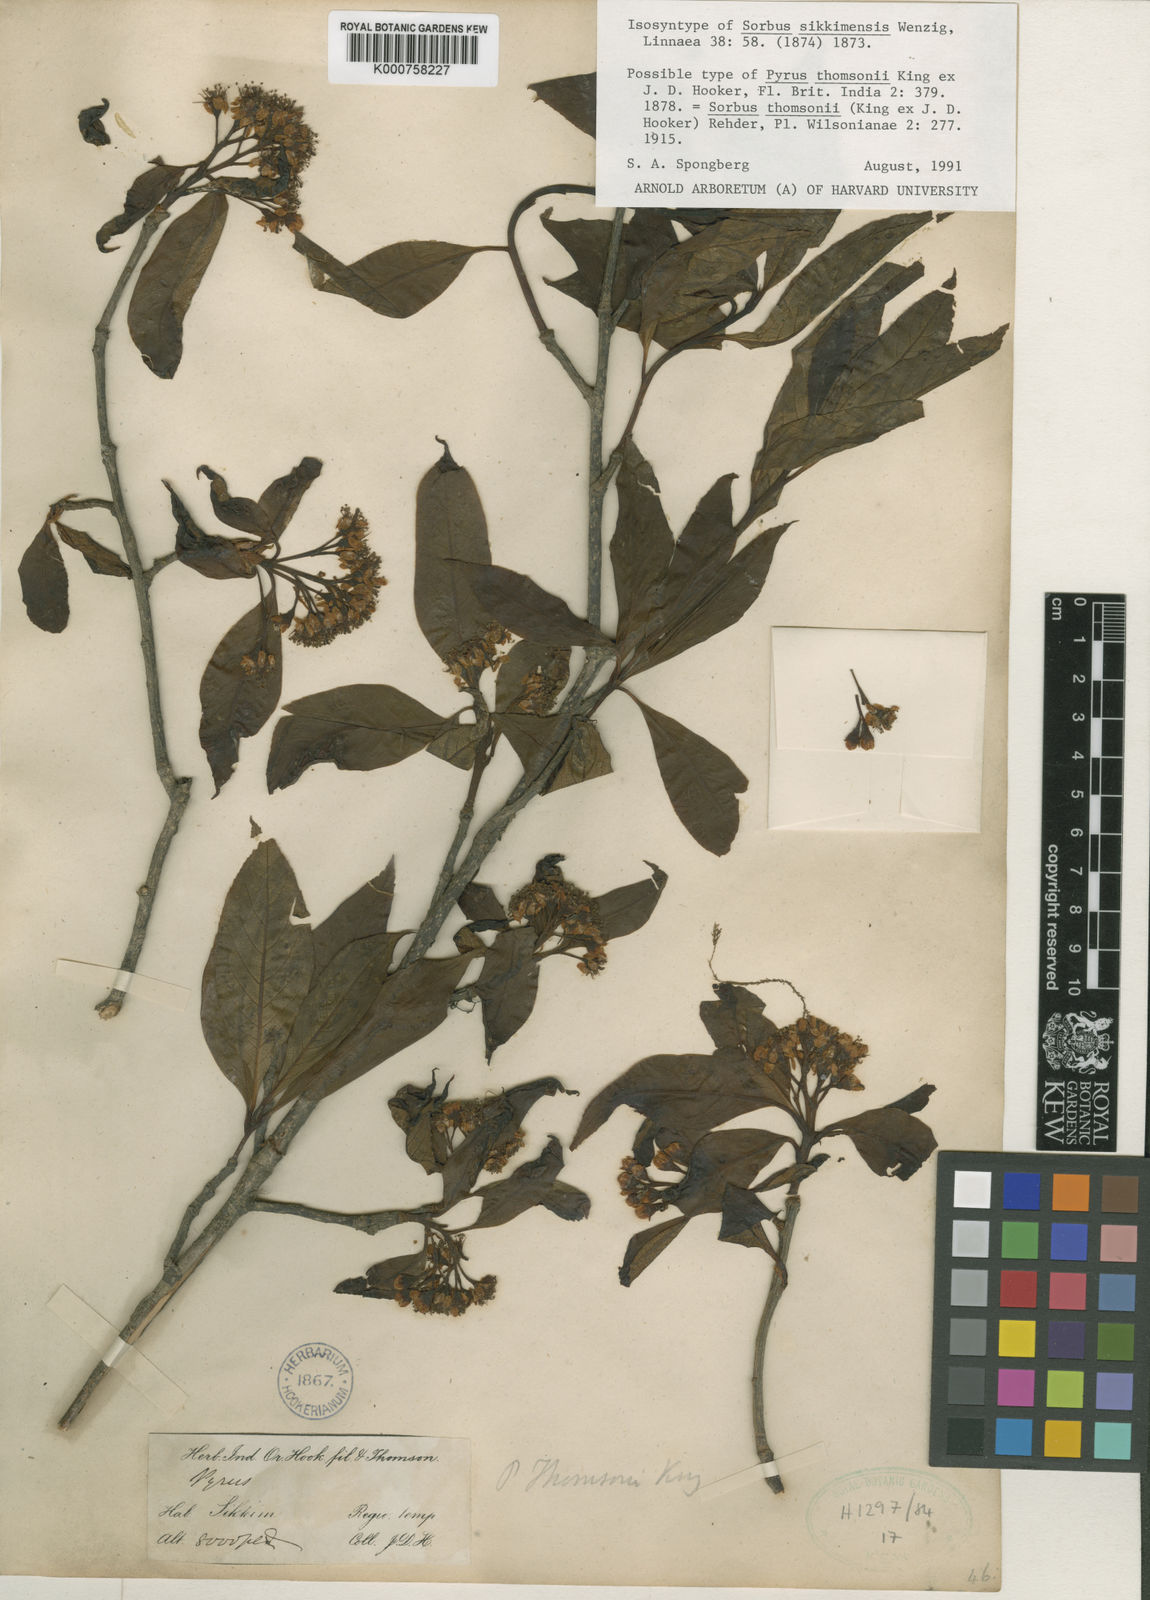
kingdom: Plantae
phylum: Tracheophyta
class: Magnoliopsida
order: Rosales
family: Rosaceae
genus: Sorbus
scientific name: Sorbus ferruginea
